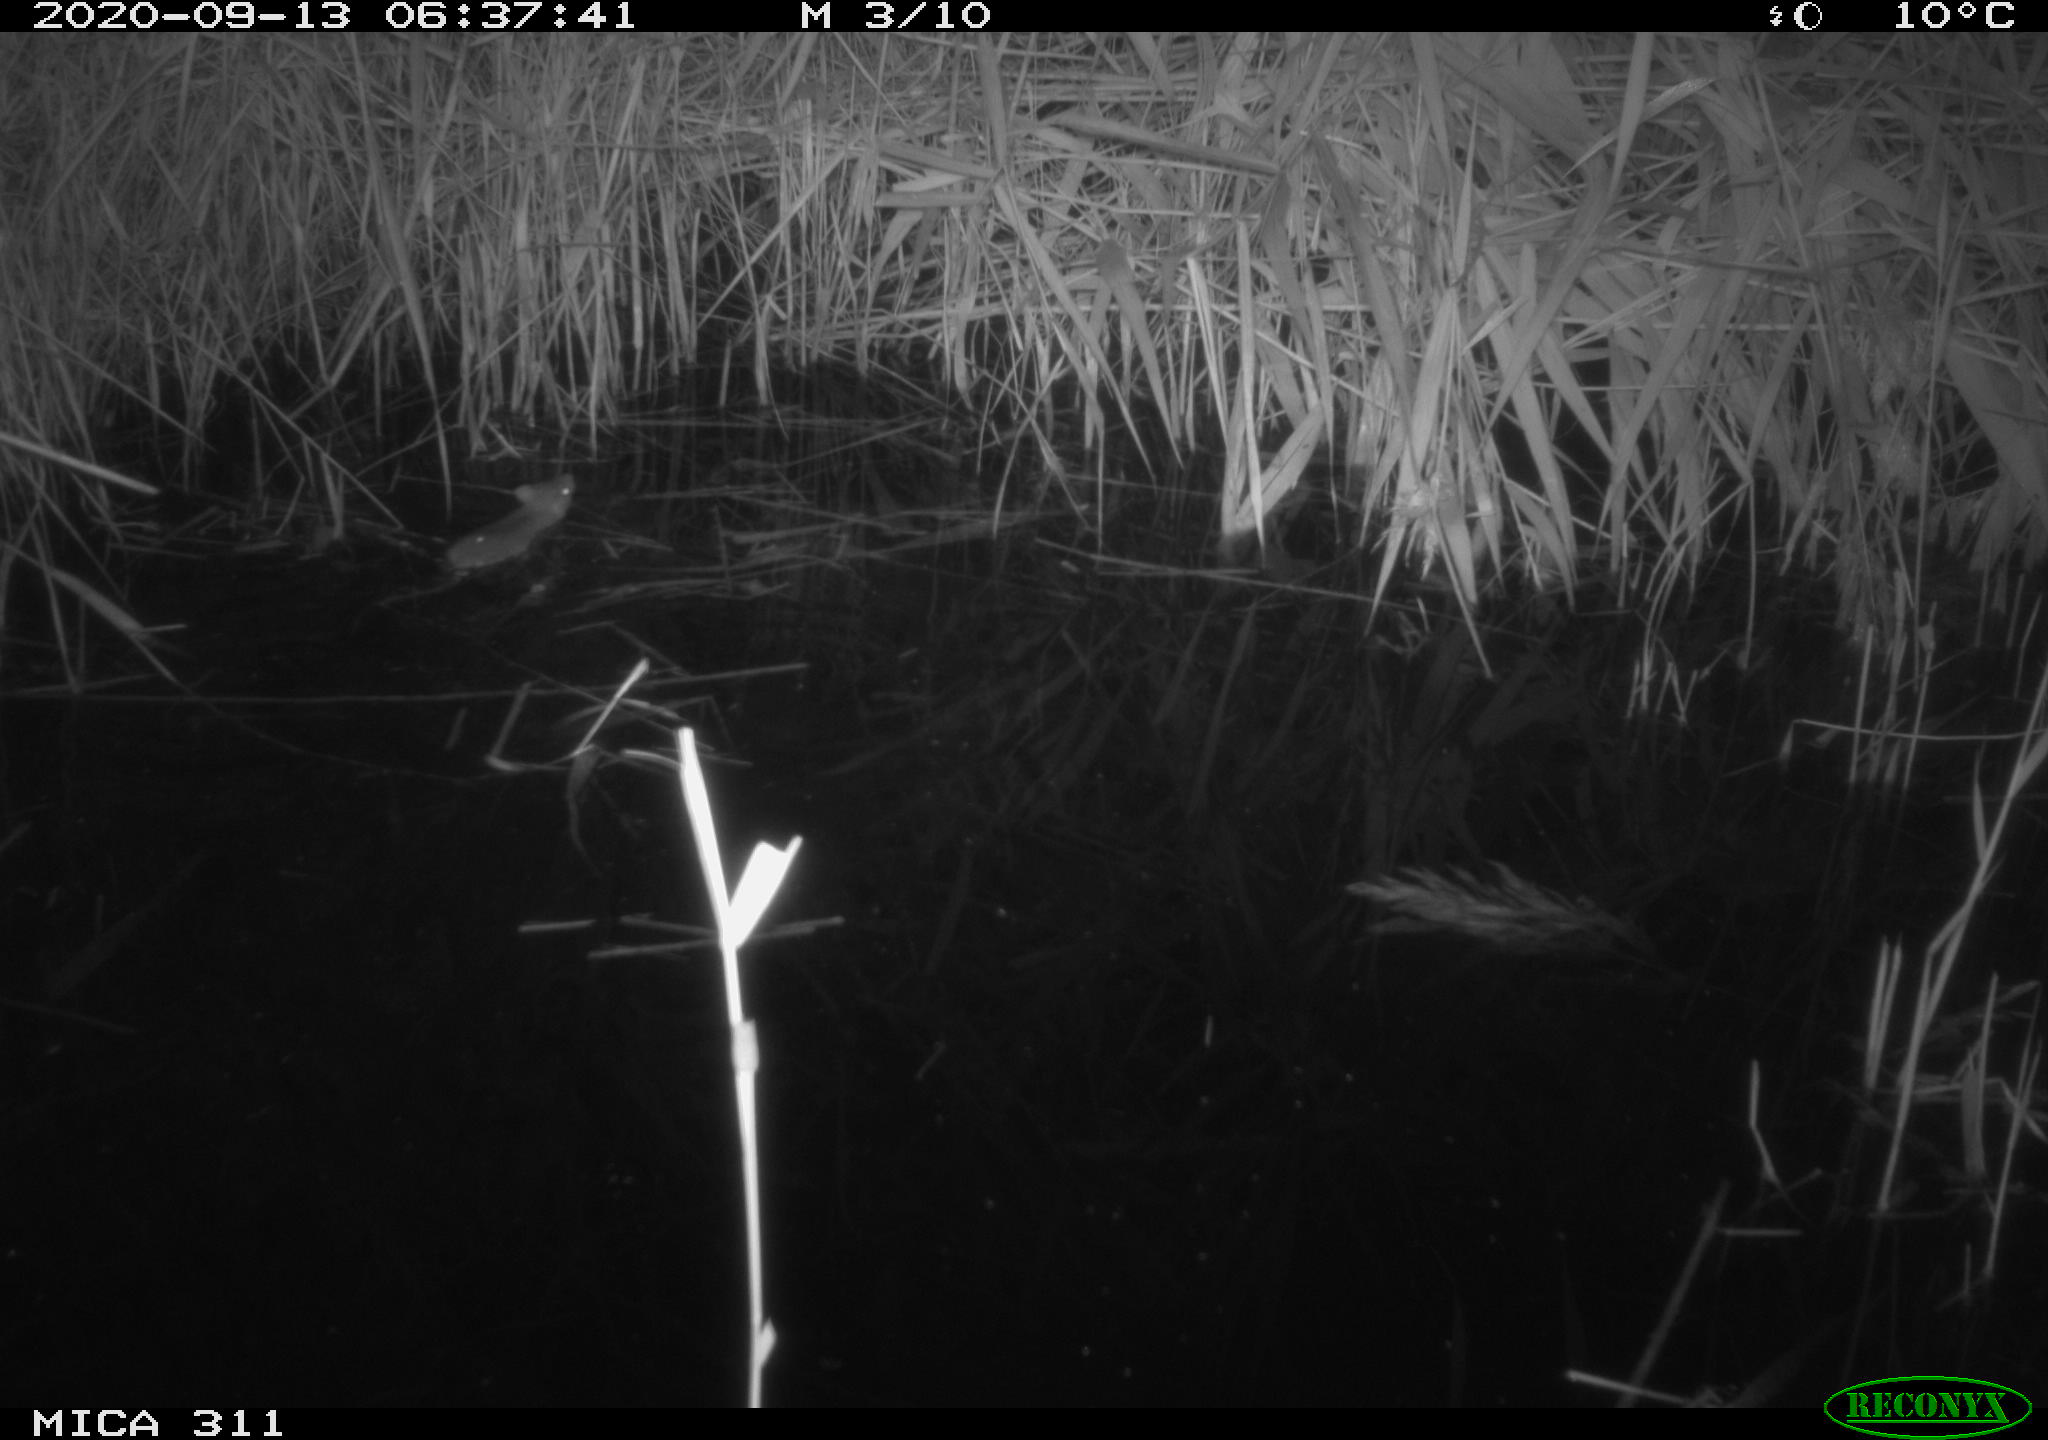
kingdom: Animalia
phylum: Chordata
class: Mammalia
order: Rodentia
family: Muridae
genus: Rattus
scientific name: Rattus norvegicus
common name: Brown rat
